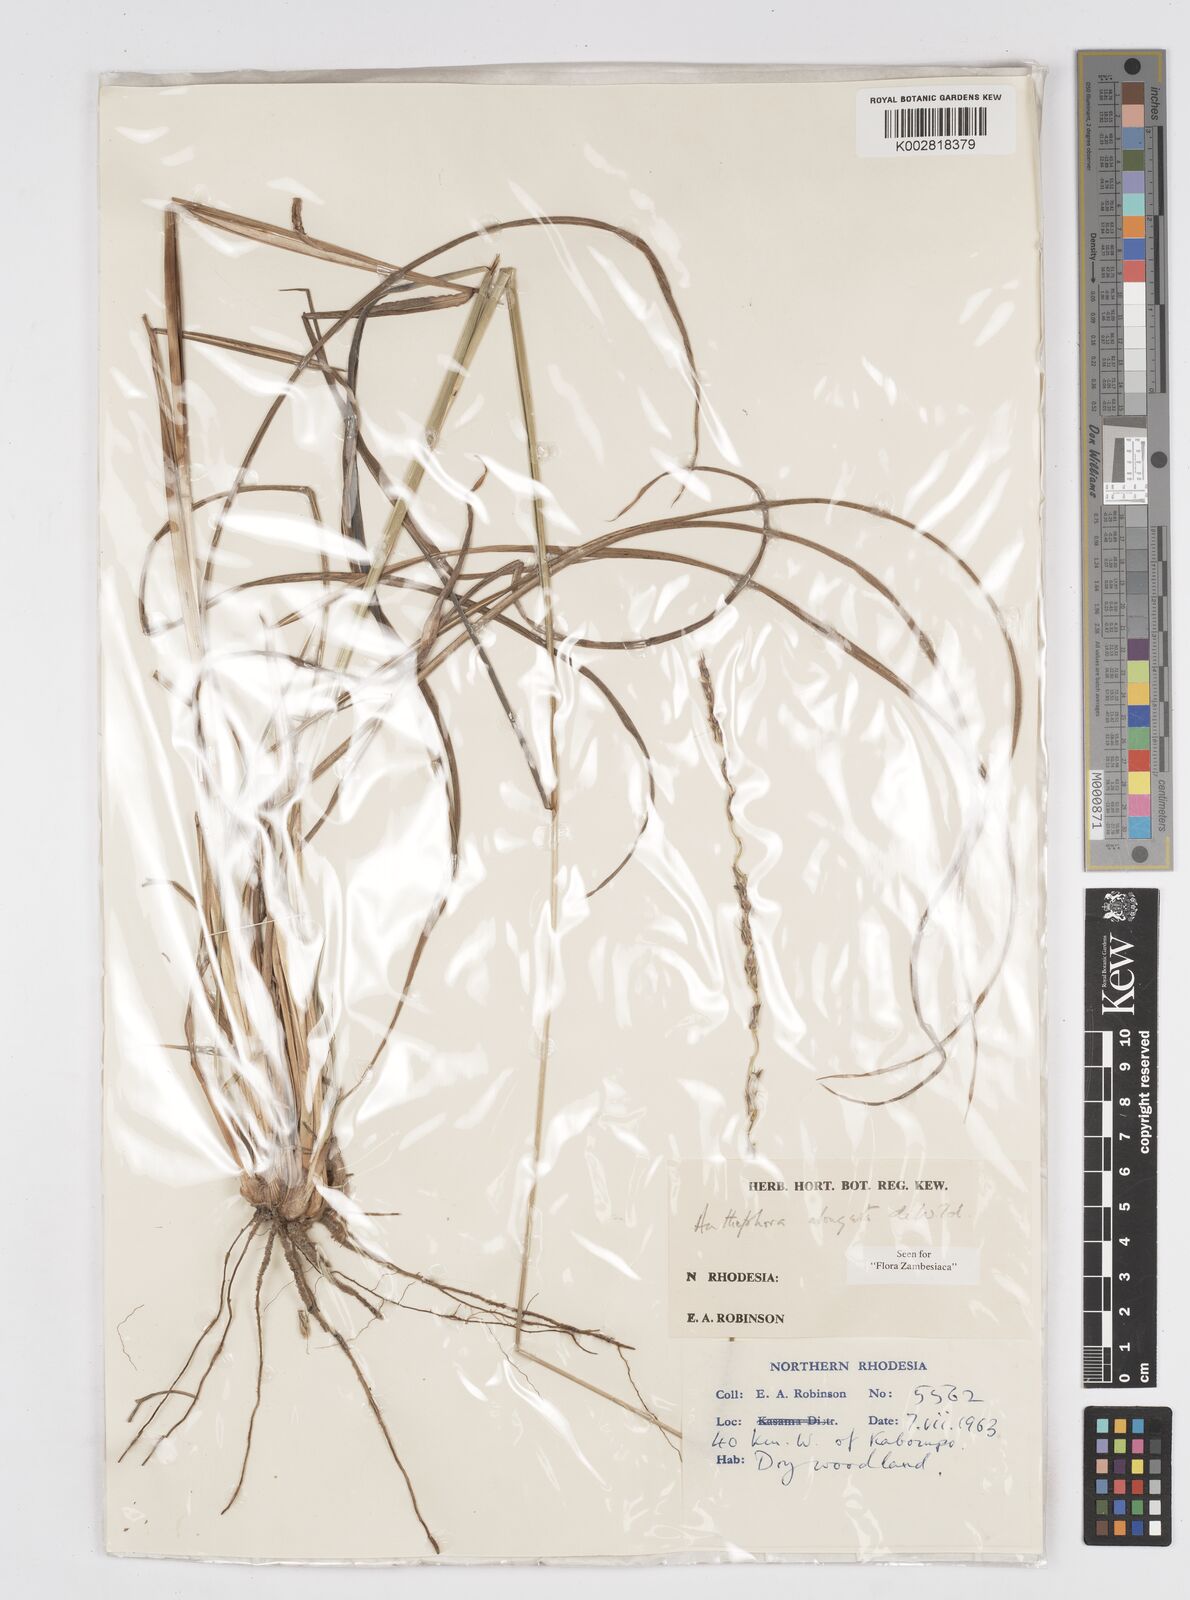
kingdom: Plantae
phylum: Tracheophyta
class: Liliopsida
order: Poales
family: Poaceae
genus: Anthephora
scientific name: Anthephora elongata
